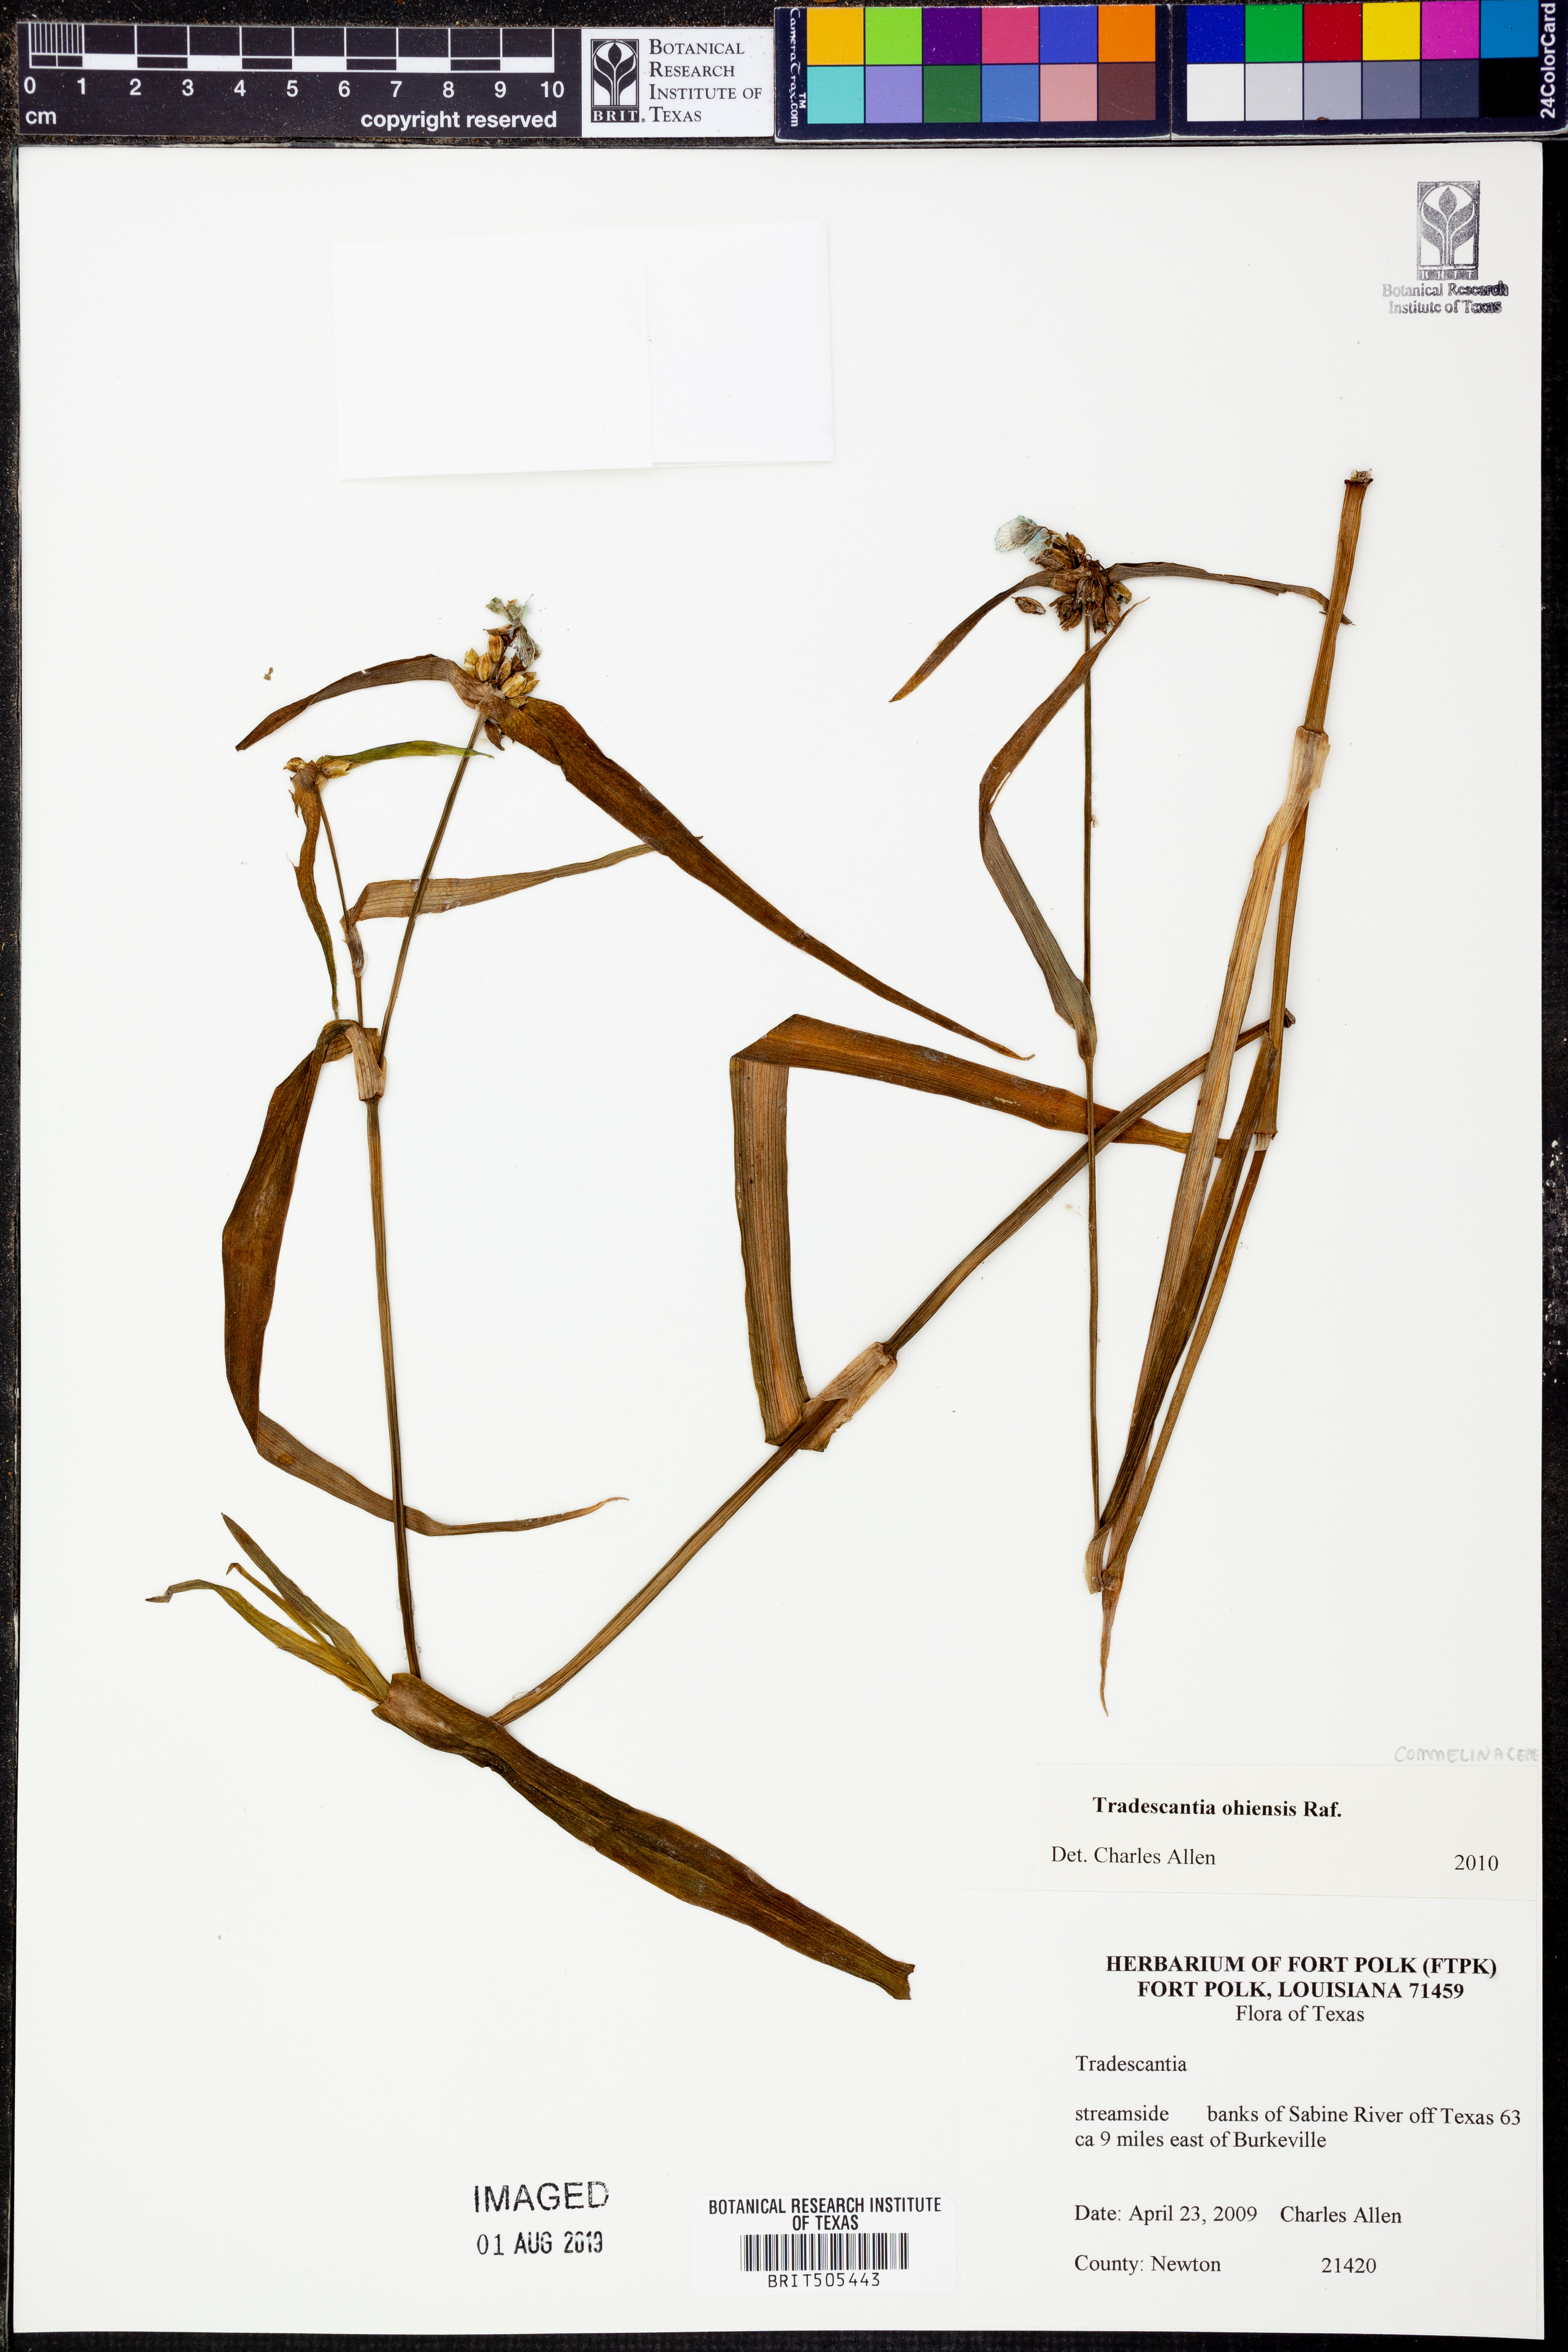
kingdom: Plantae
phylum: Tracheophyta
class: Liliopsida
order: Commelinales
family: Commelinaceae
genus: Tradescantia
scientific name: Tradescantia ohiensis
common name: Ohio spiderwort
